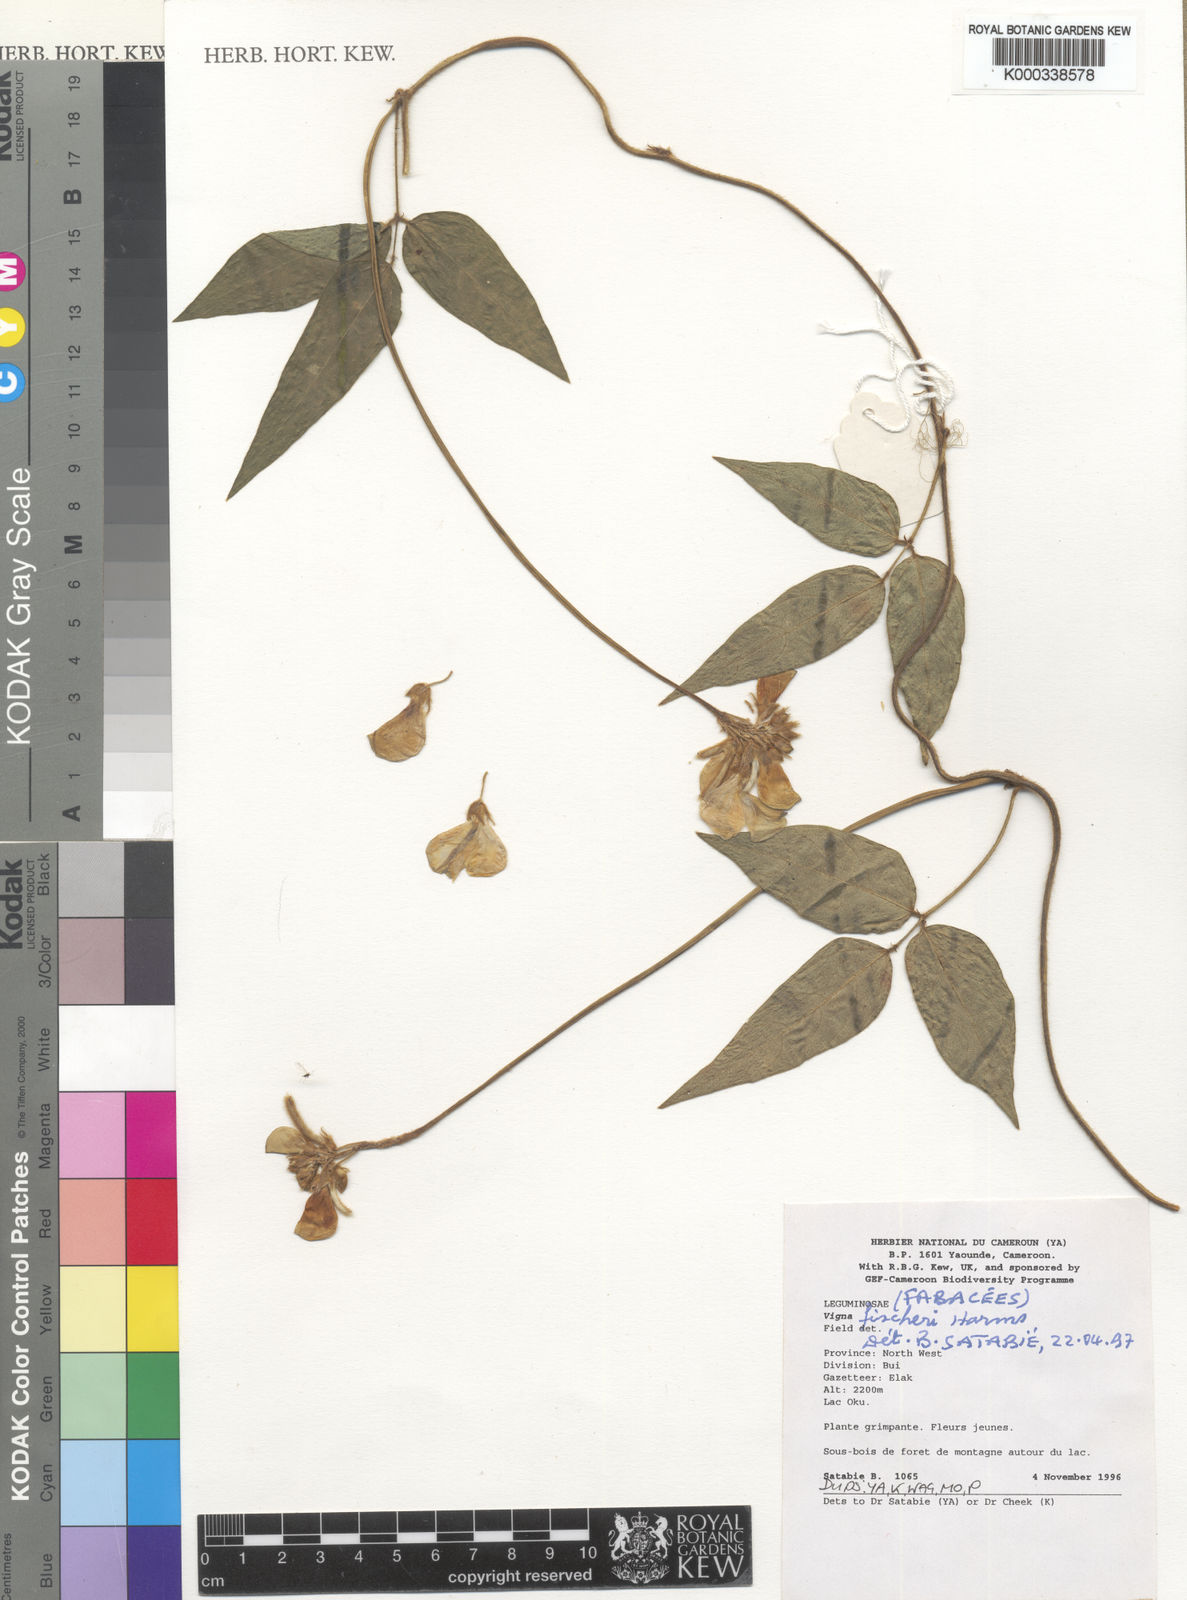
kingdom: Plantae
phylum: Tracheophyta
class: Magnoliopsida
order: Fabales
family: Fabaceae
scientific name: Fabaceae
